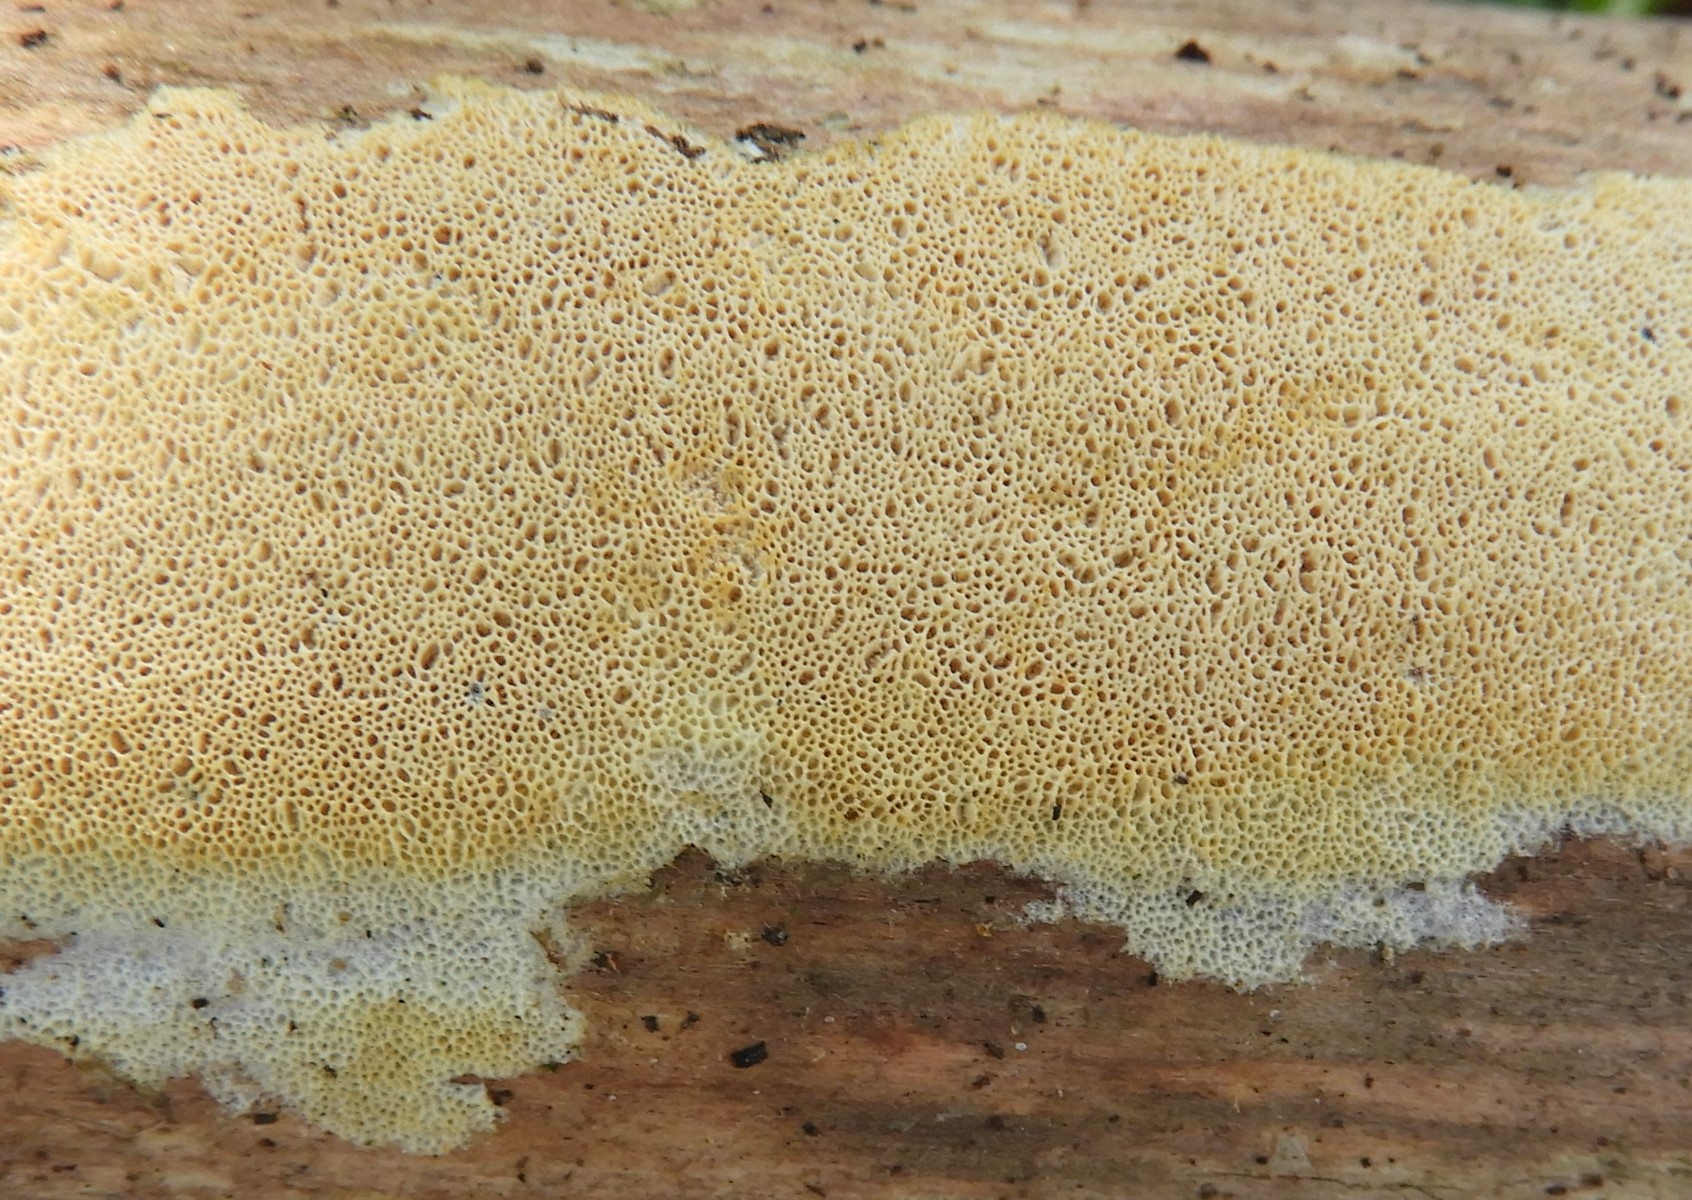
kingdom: Fungi
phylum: Basidiomycota
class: Agaricomycetes
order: Polyporales
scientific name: Polyporales
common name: poresvampordenen
